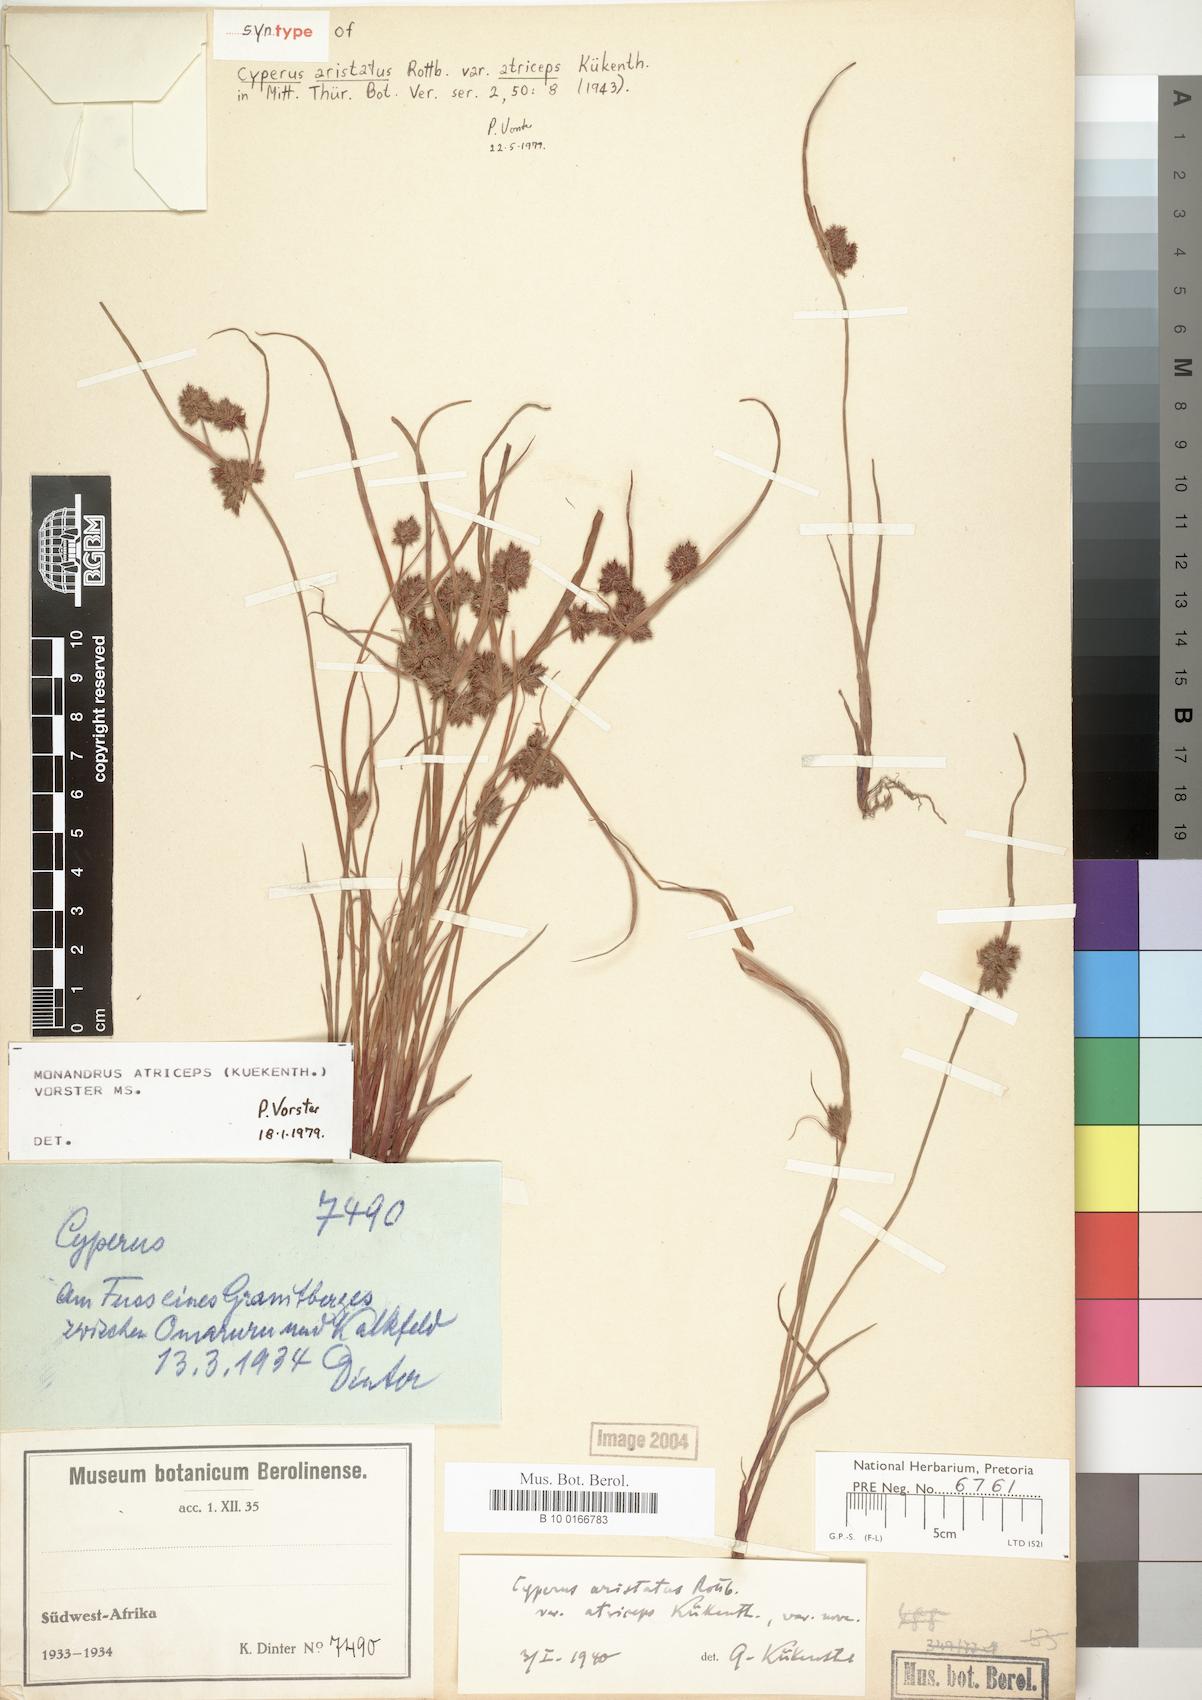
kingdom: Plantae
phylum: Tracheophyta
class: Liliopsida
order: Poales
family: Cyperaceae
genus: Cyperus
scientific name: Cyperus atriceps
